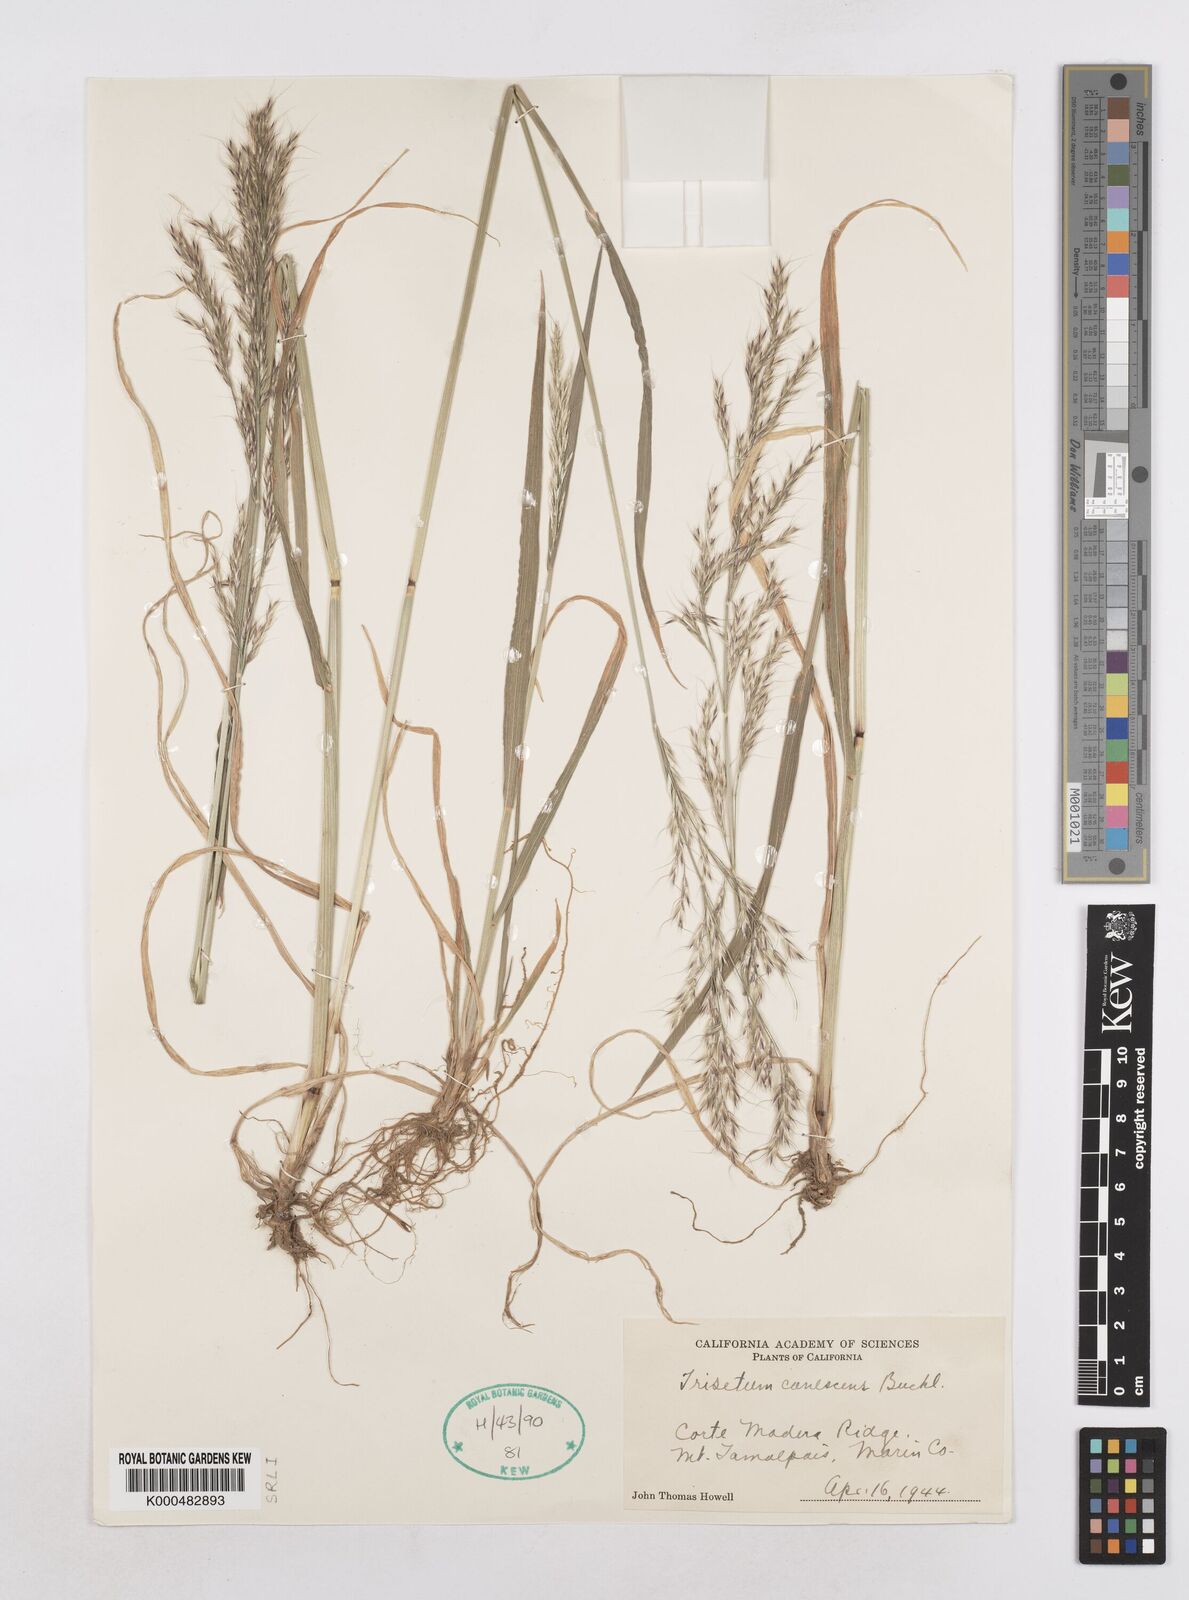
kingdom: Plantae
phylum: Tracheophyta
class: Liliopsida
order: Poales
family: Poaceae
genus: Graphephorum
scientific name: Graphephorum canescens
